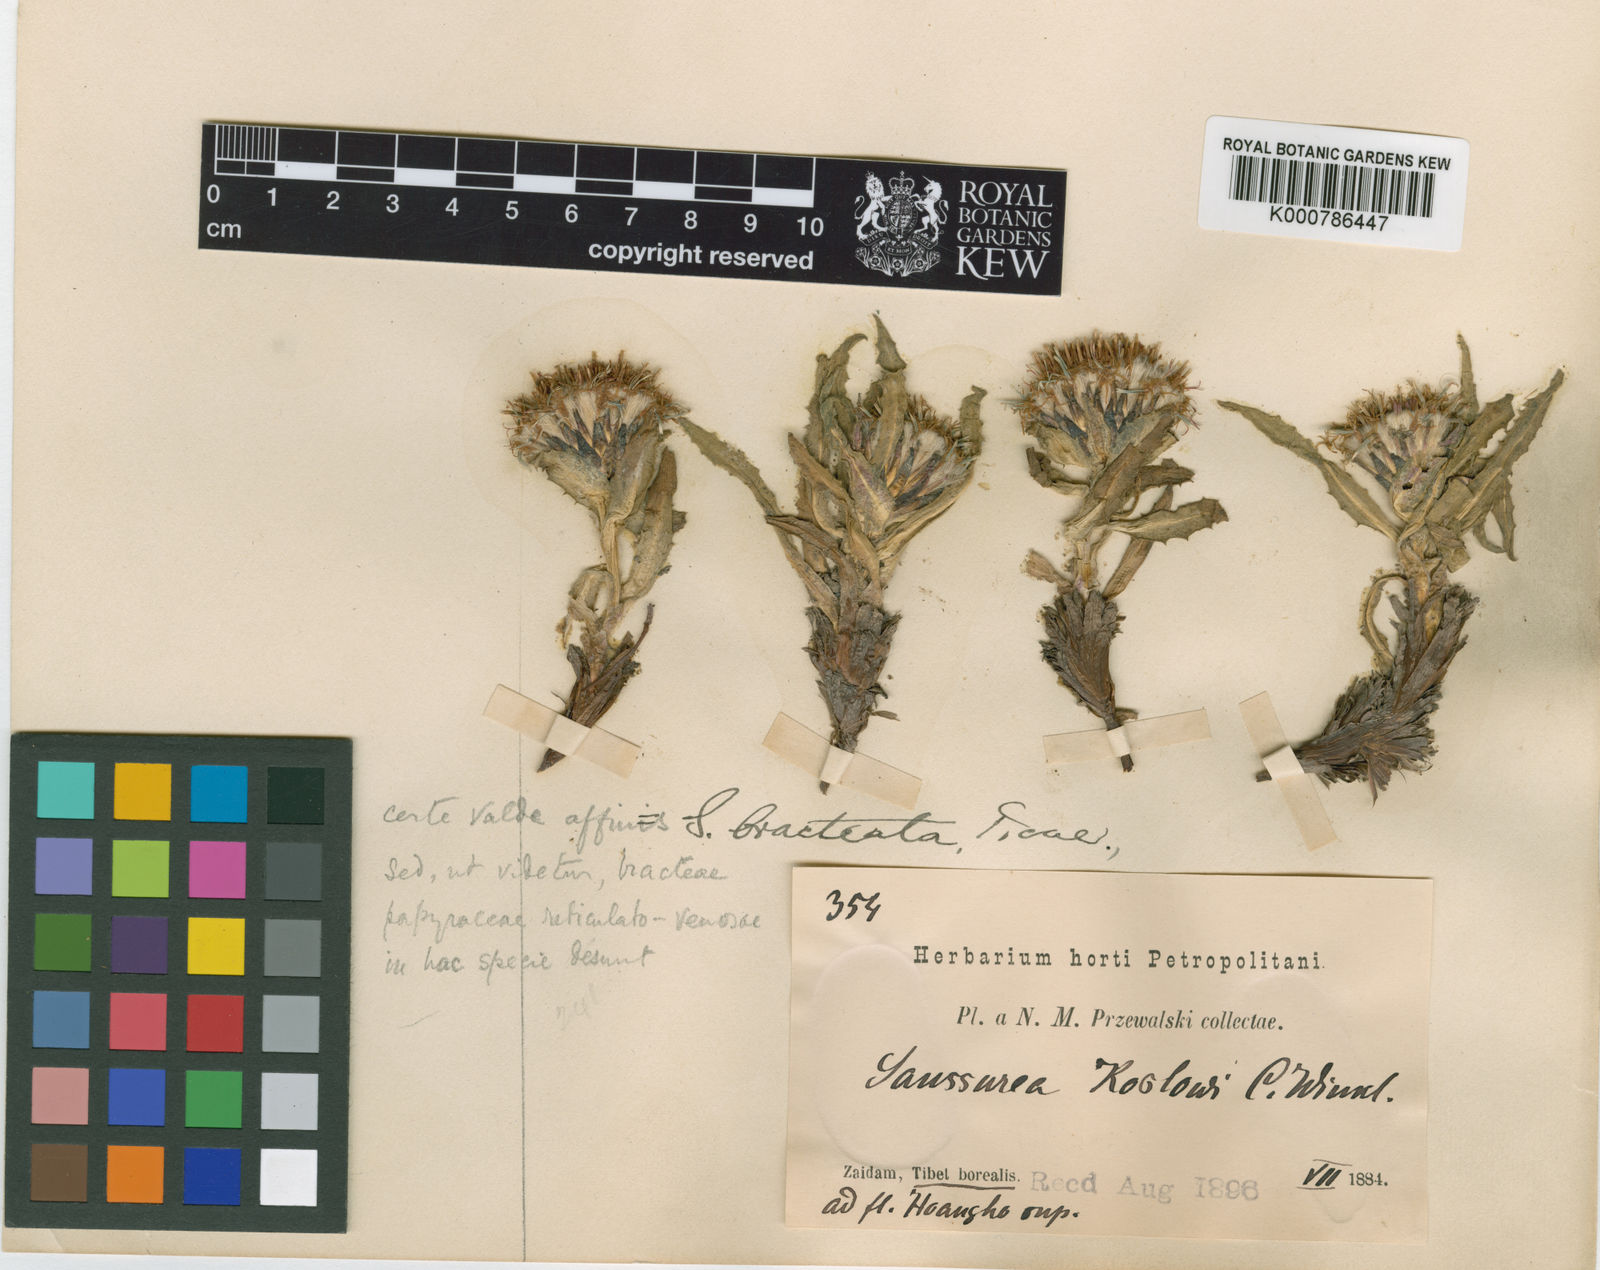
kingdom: Plantae
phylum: Tracheophyta
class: Magnoliopsida
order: Asterales
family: Asteraceae
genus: Saussurea
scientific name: Saussurea apus
